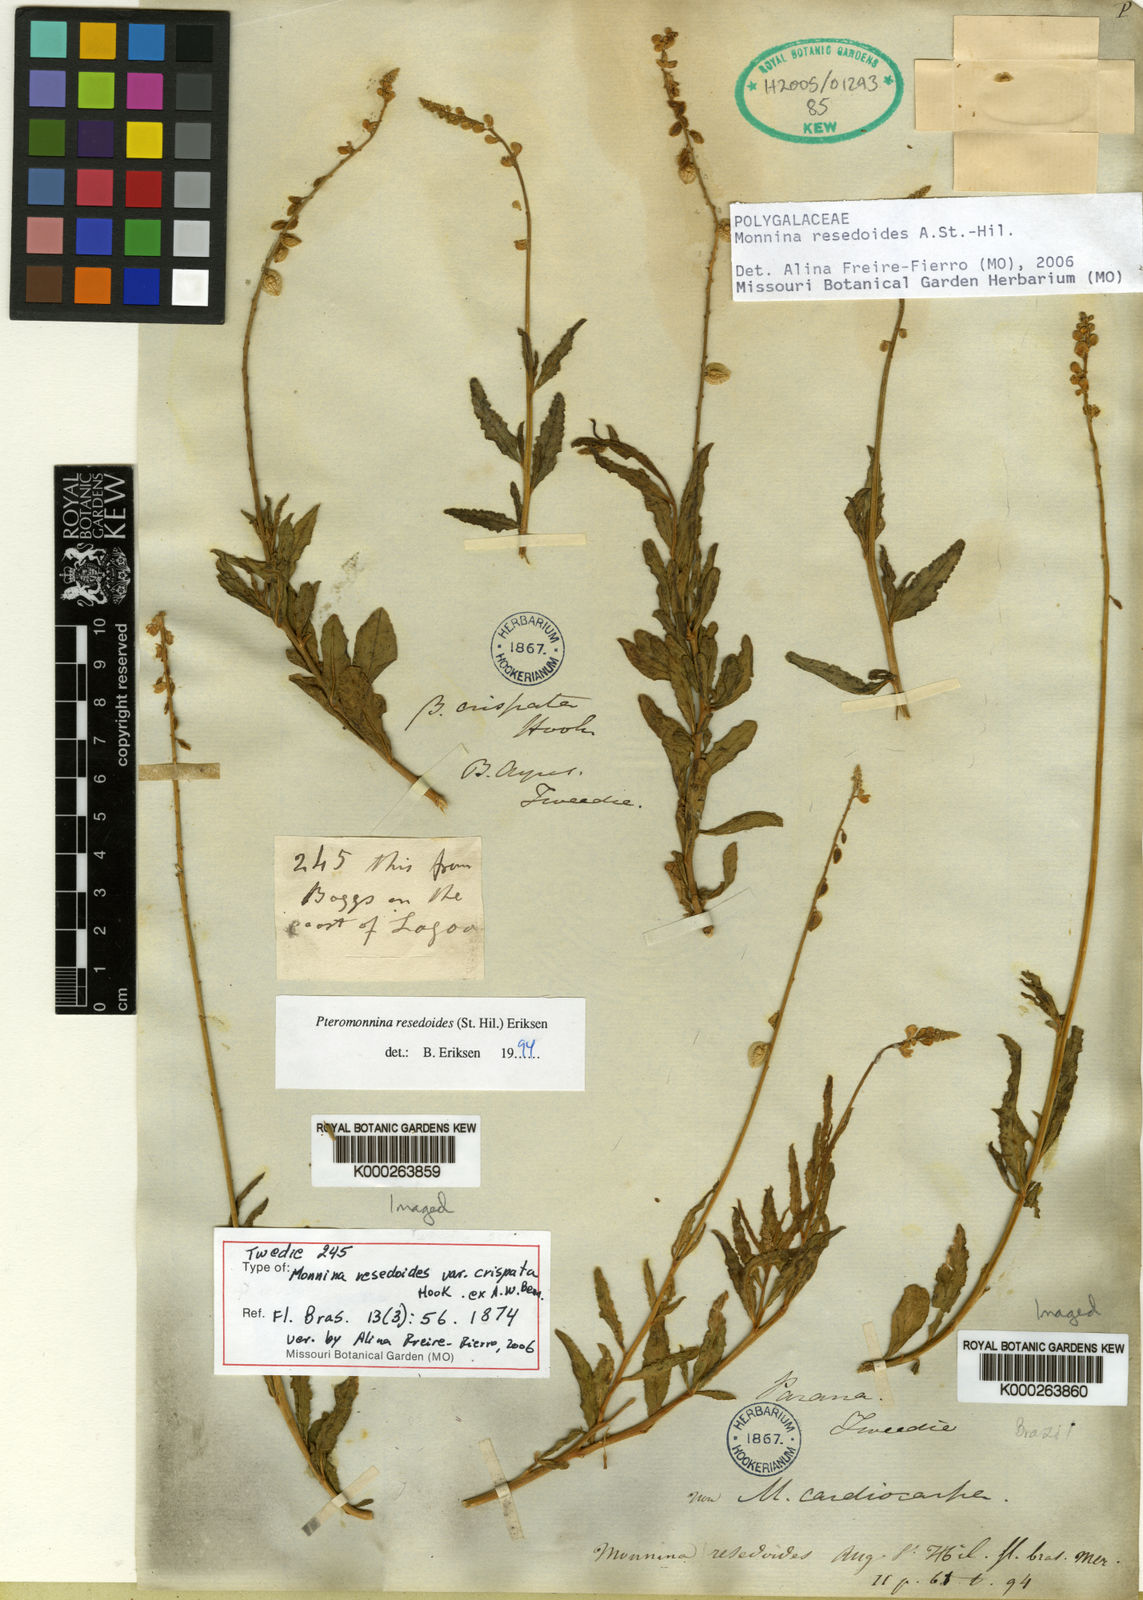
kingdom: Plantae
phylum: Tracheophyta
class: Magnoliopsida
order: Fabales
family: Polygalaceae
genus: Monnina
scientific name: Monnina
